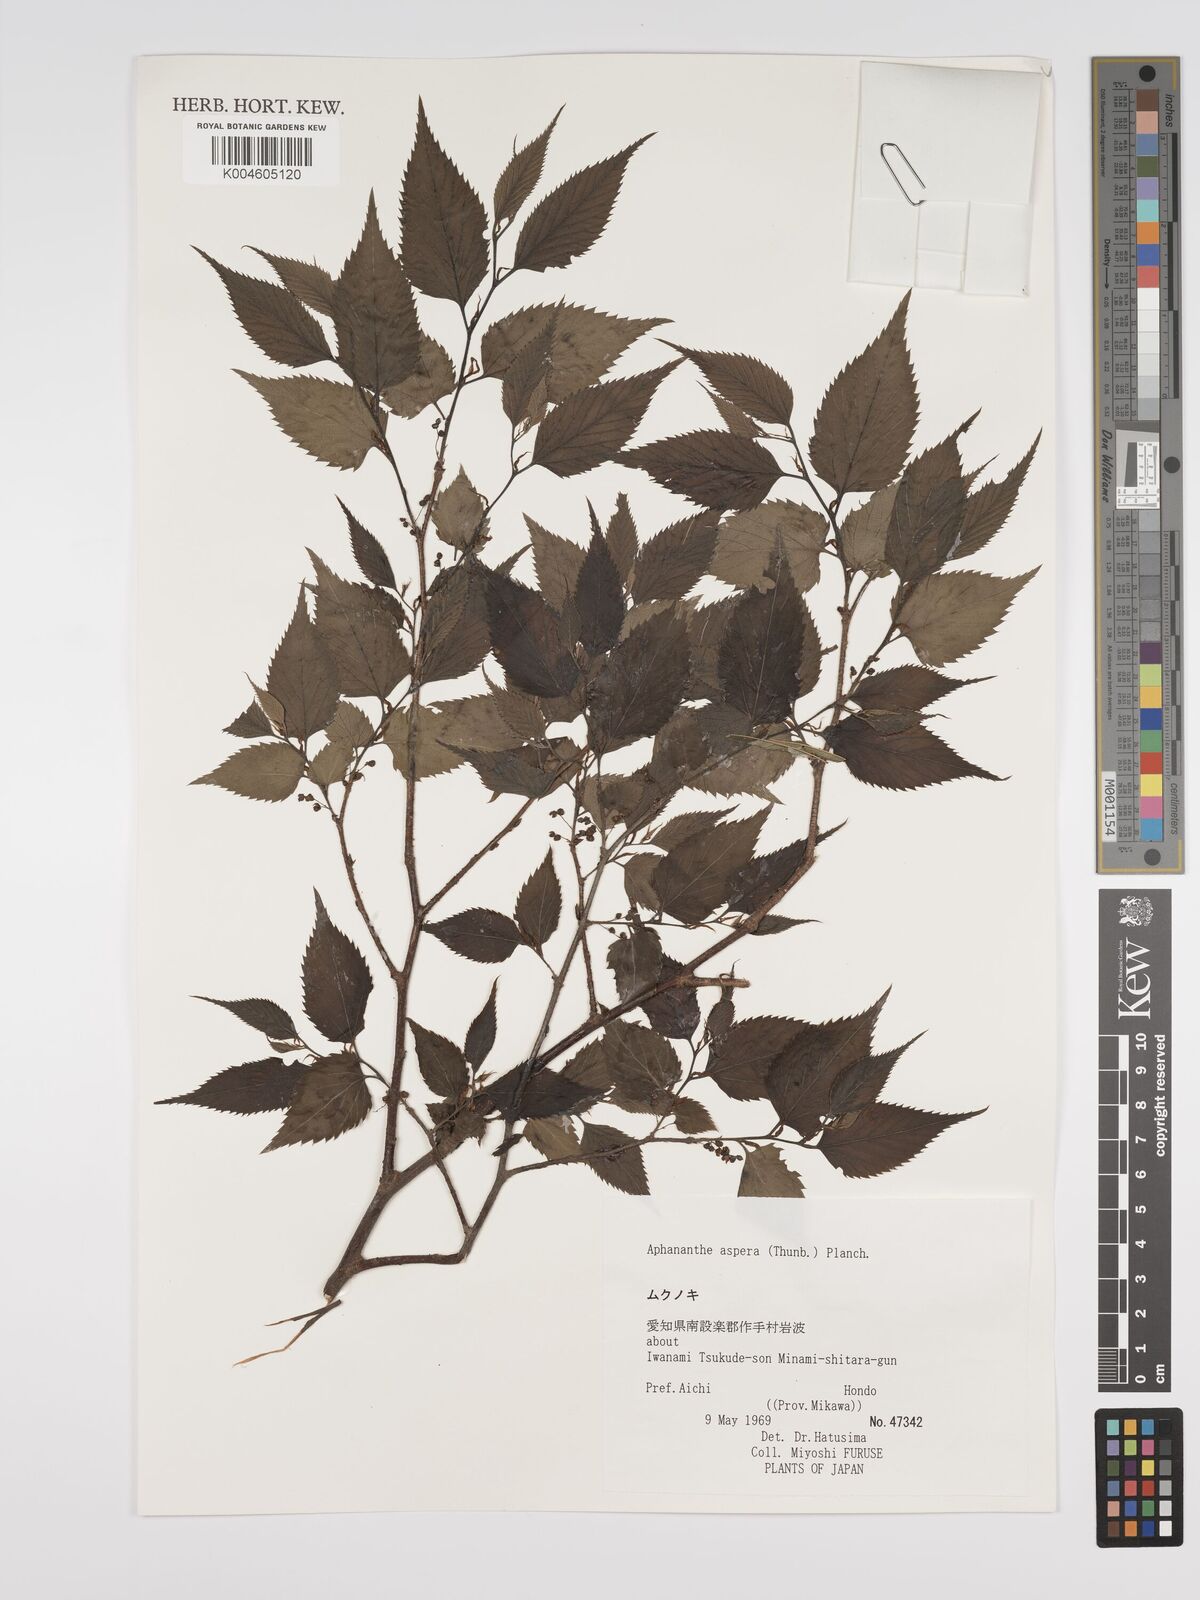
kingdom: Plantae
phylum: Tracheophyta
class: Magnoliopsida
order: Rosales
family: Cannabaceae
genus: Aphananthe
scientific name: Aphananthe aspera
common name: Mukutree
